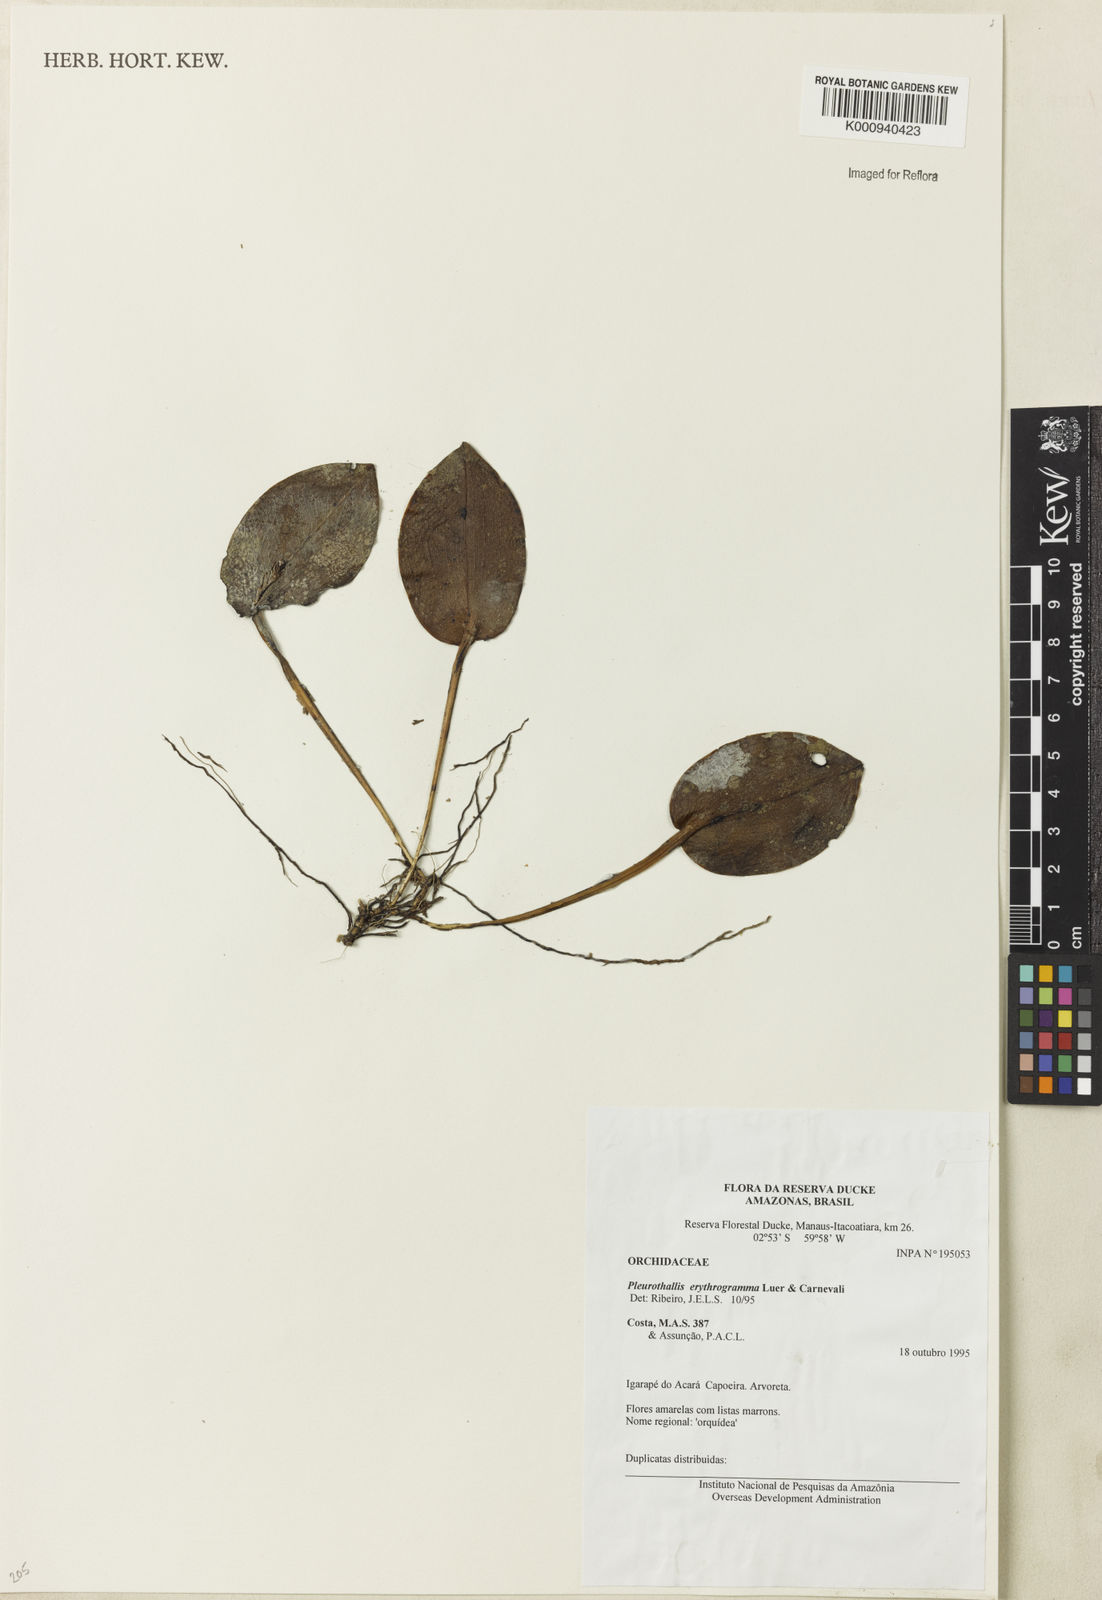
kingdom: Plantae
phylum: Tracheophyta
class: Liliopsida
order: Asparagales
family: Orchidaceae
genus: Acianthera
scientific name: Acianthera erythrogramma
